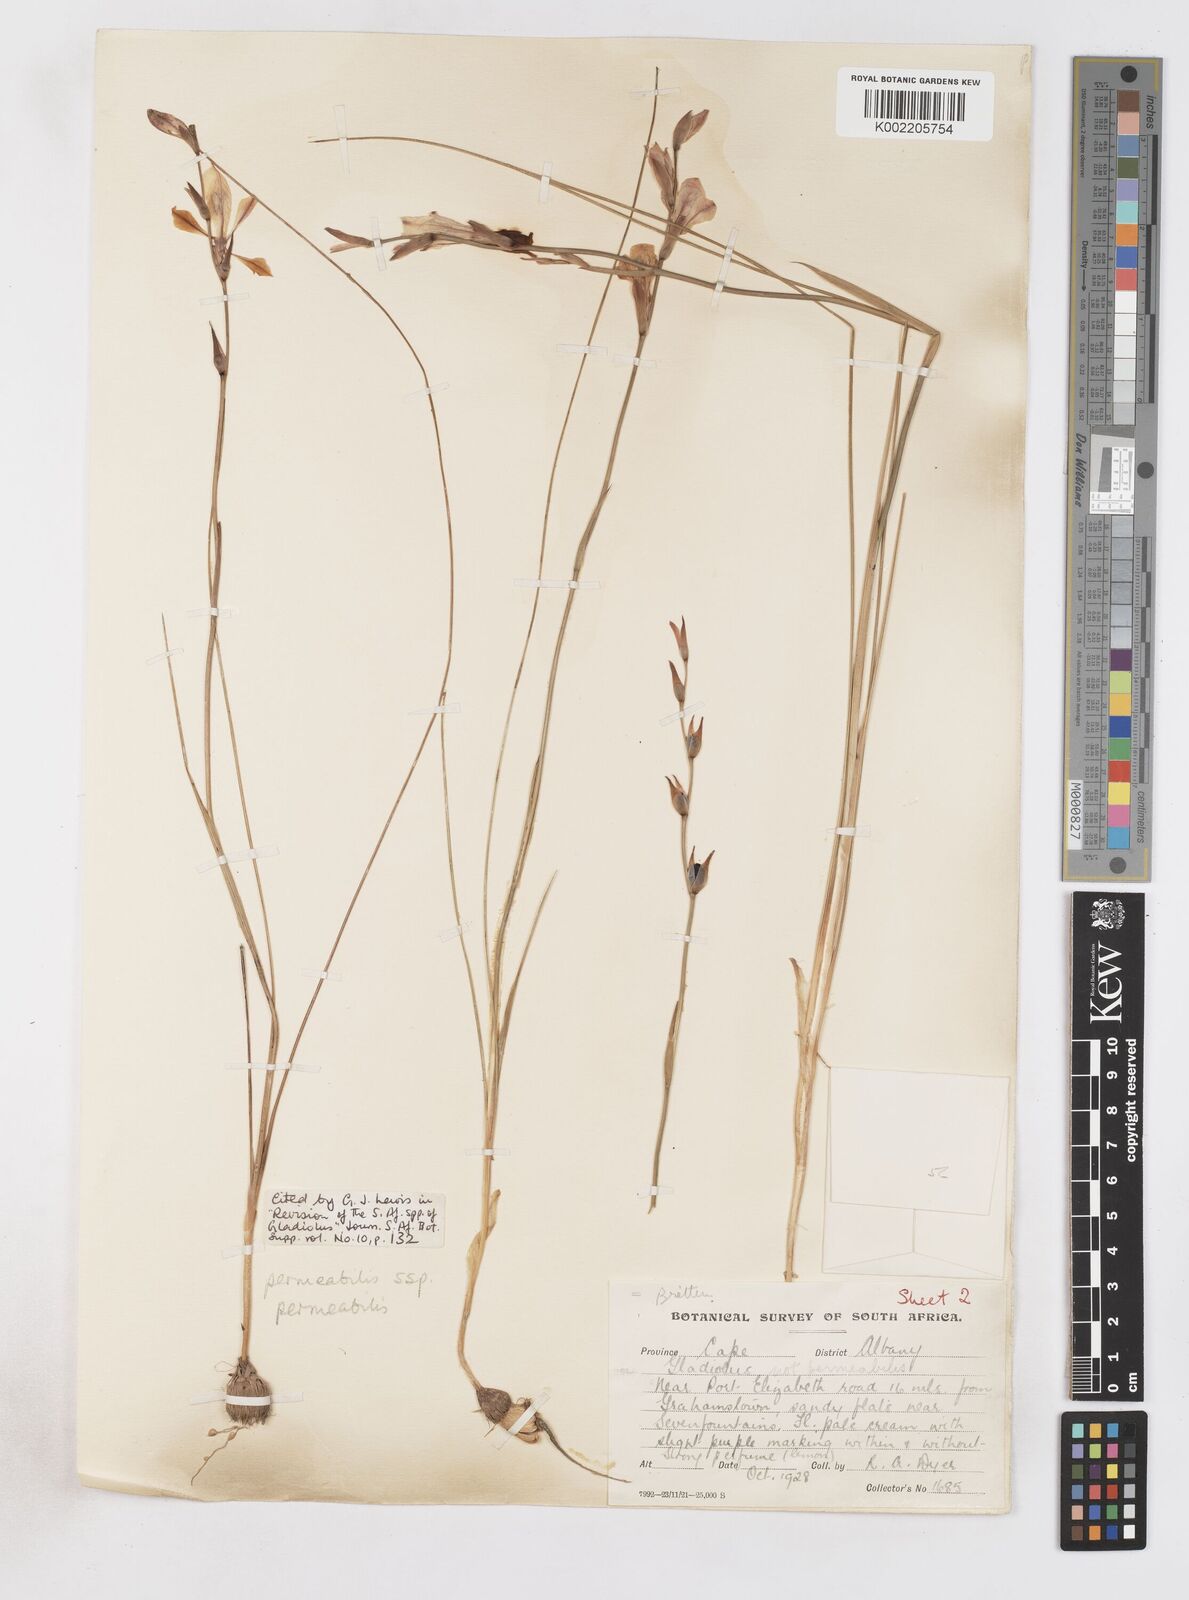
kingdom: Plantae
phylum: Tracheophyta
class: Liliopsida
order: Asparagales
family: Iridaceae
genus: Gladiolus
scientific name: Gladiolus wilsonii
